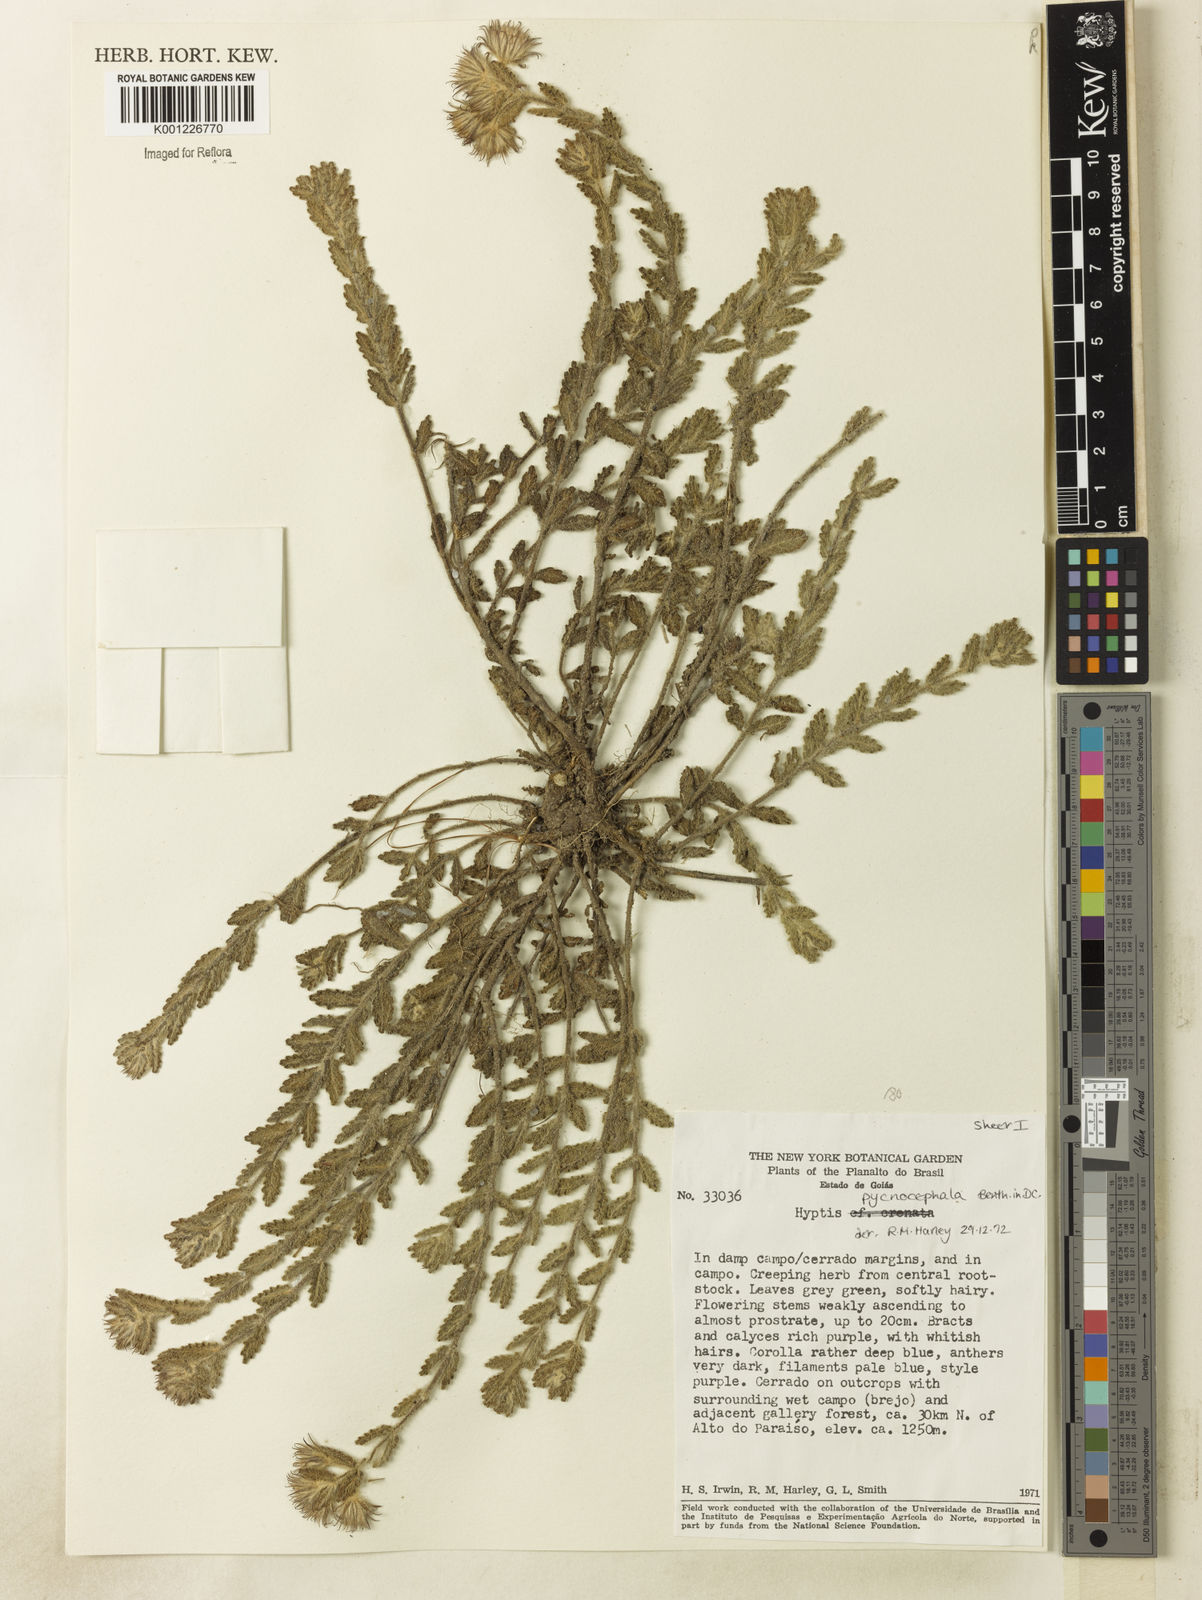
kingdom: Plantae
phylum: Tracheophyta
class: Magnoliopsida
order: Lamiales
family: Lamiaceae
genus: Hyptis
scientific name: Hyptis pycnocephala
